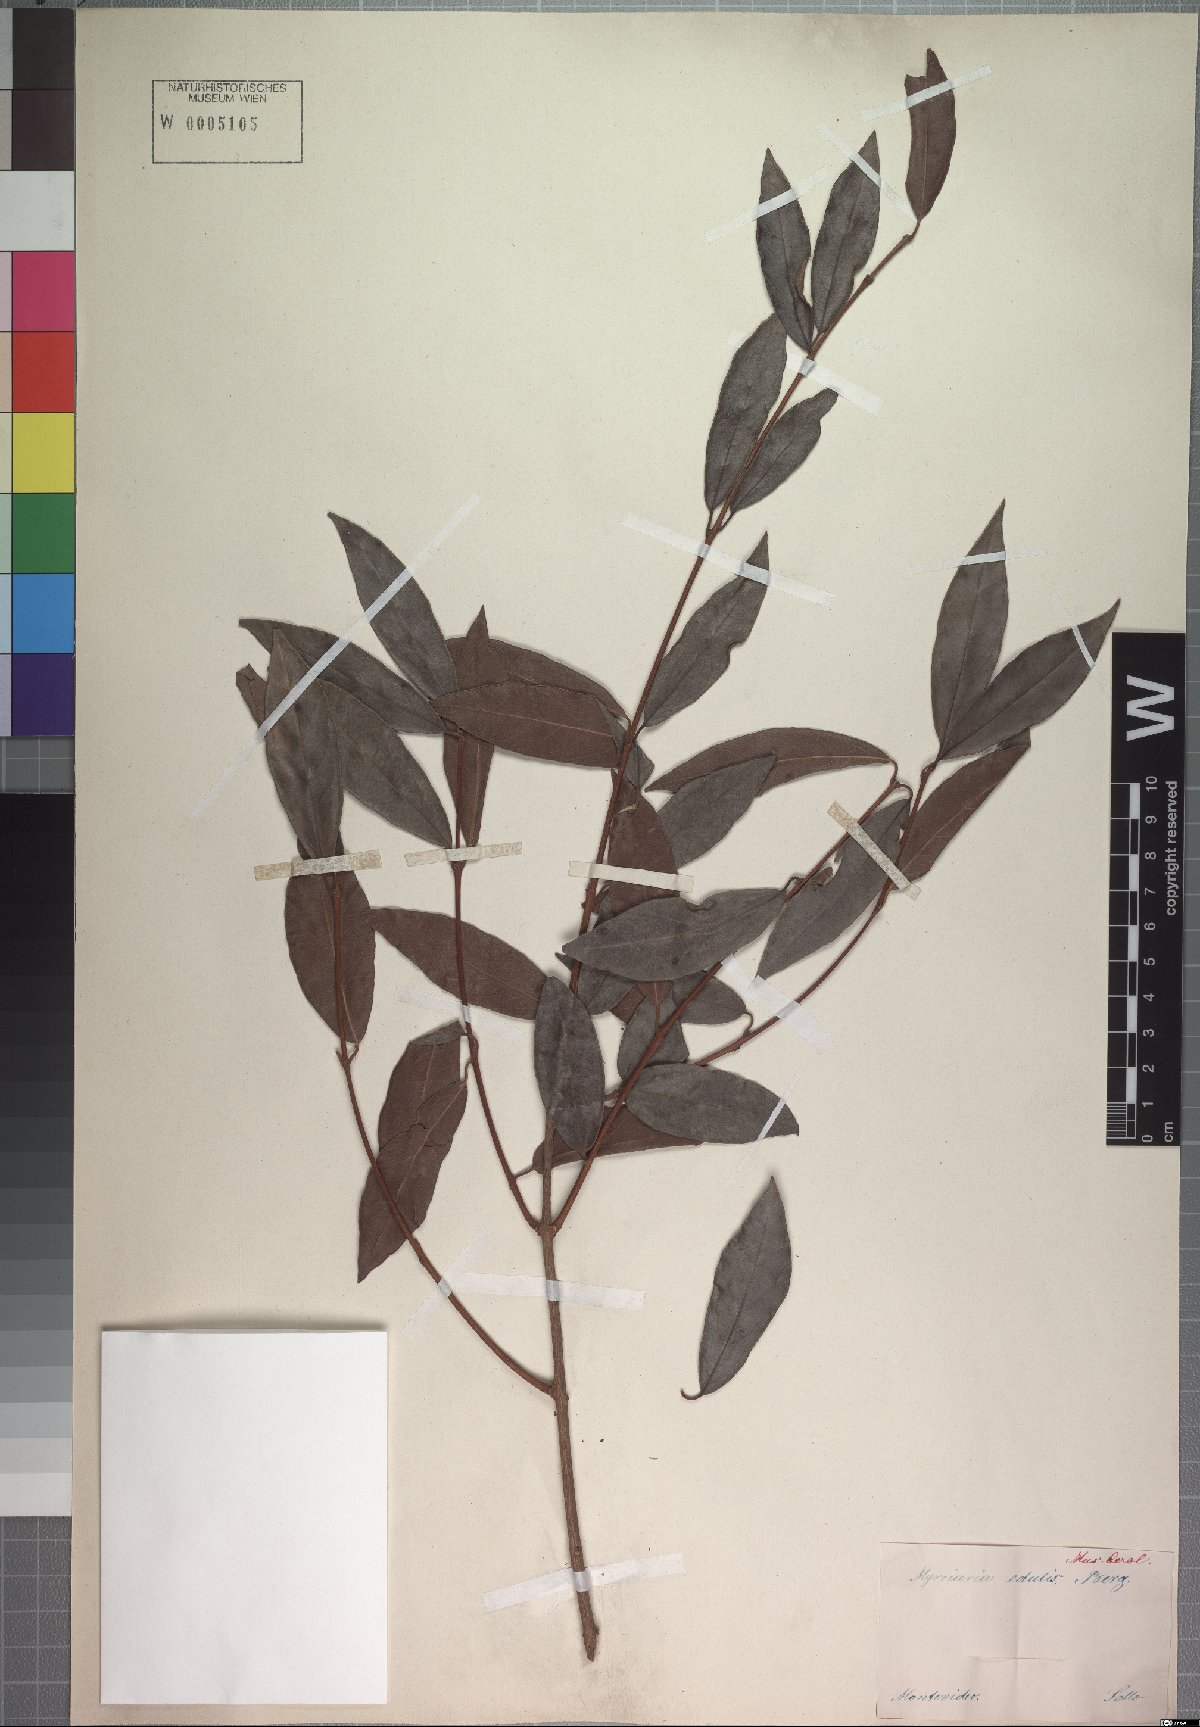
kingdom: Plantae
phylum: Tracheophyta
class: Magnoliopsida
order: Myrtales
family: Myrtaceae
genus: Eugenia
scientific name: Eugenia myrcianthes
